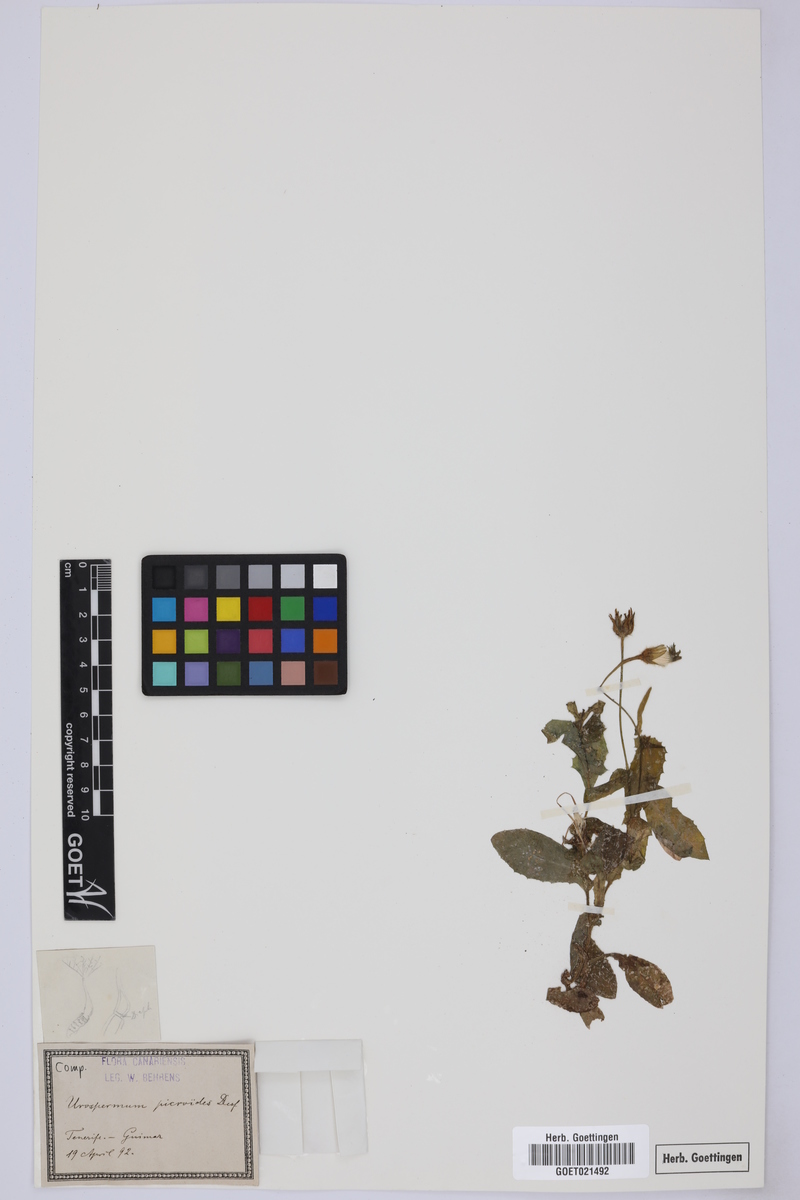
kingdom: Plantae
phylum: Tracheophyta
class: Magnoliopsida
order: Asterales
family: Asteraceae
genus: Urospermum
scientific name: Urospermum picroides
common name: False hawkbit
